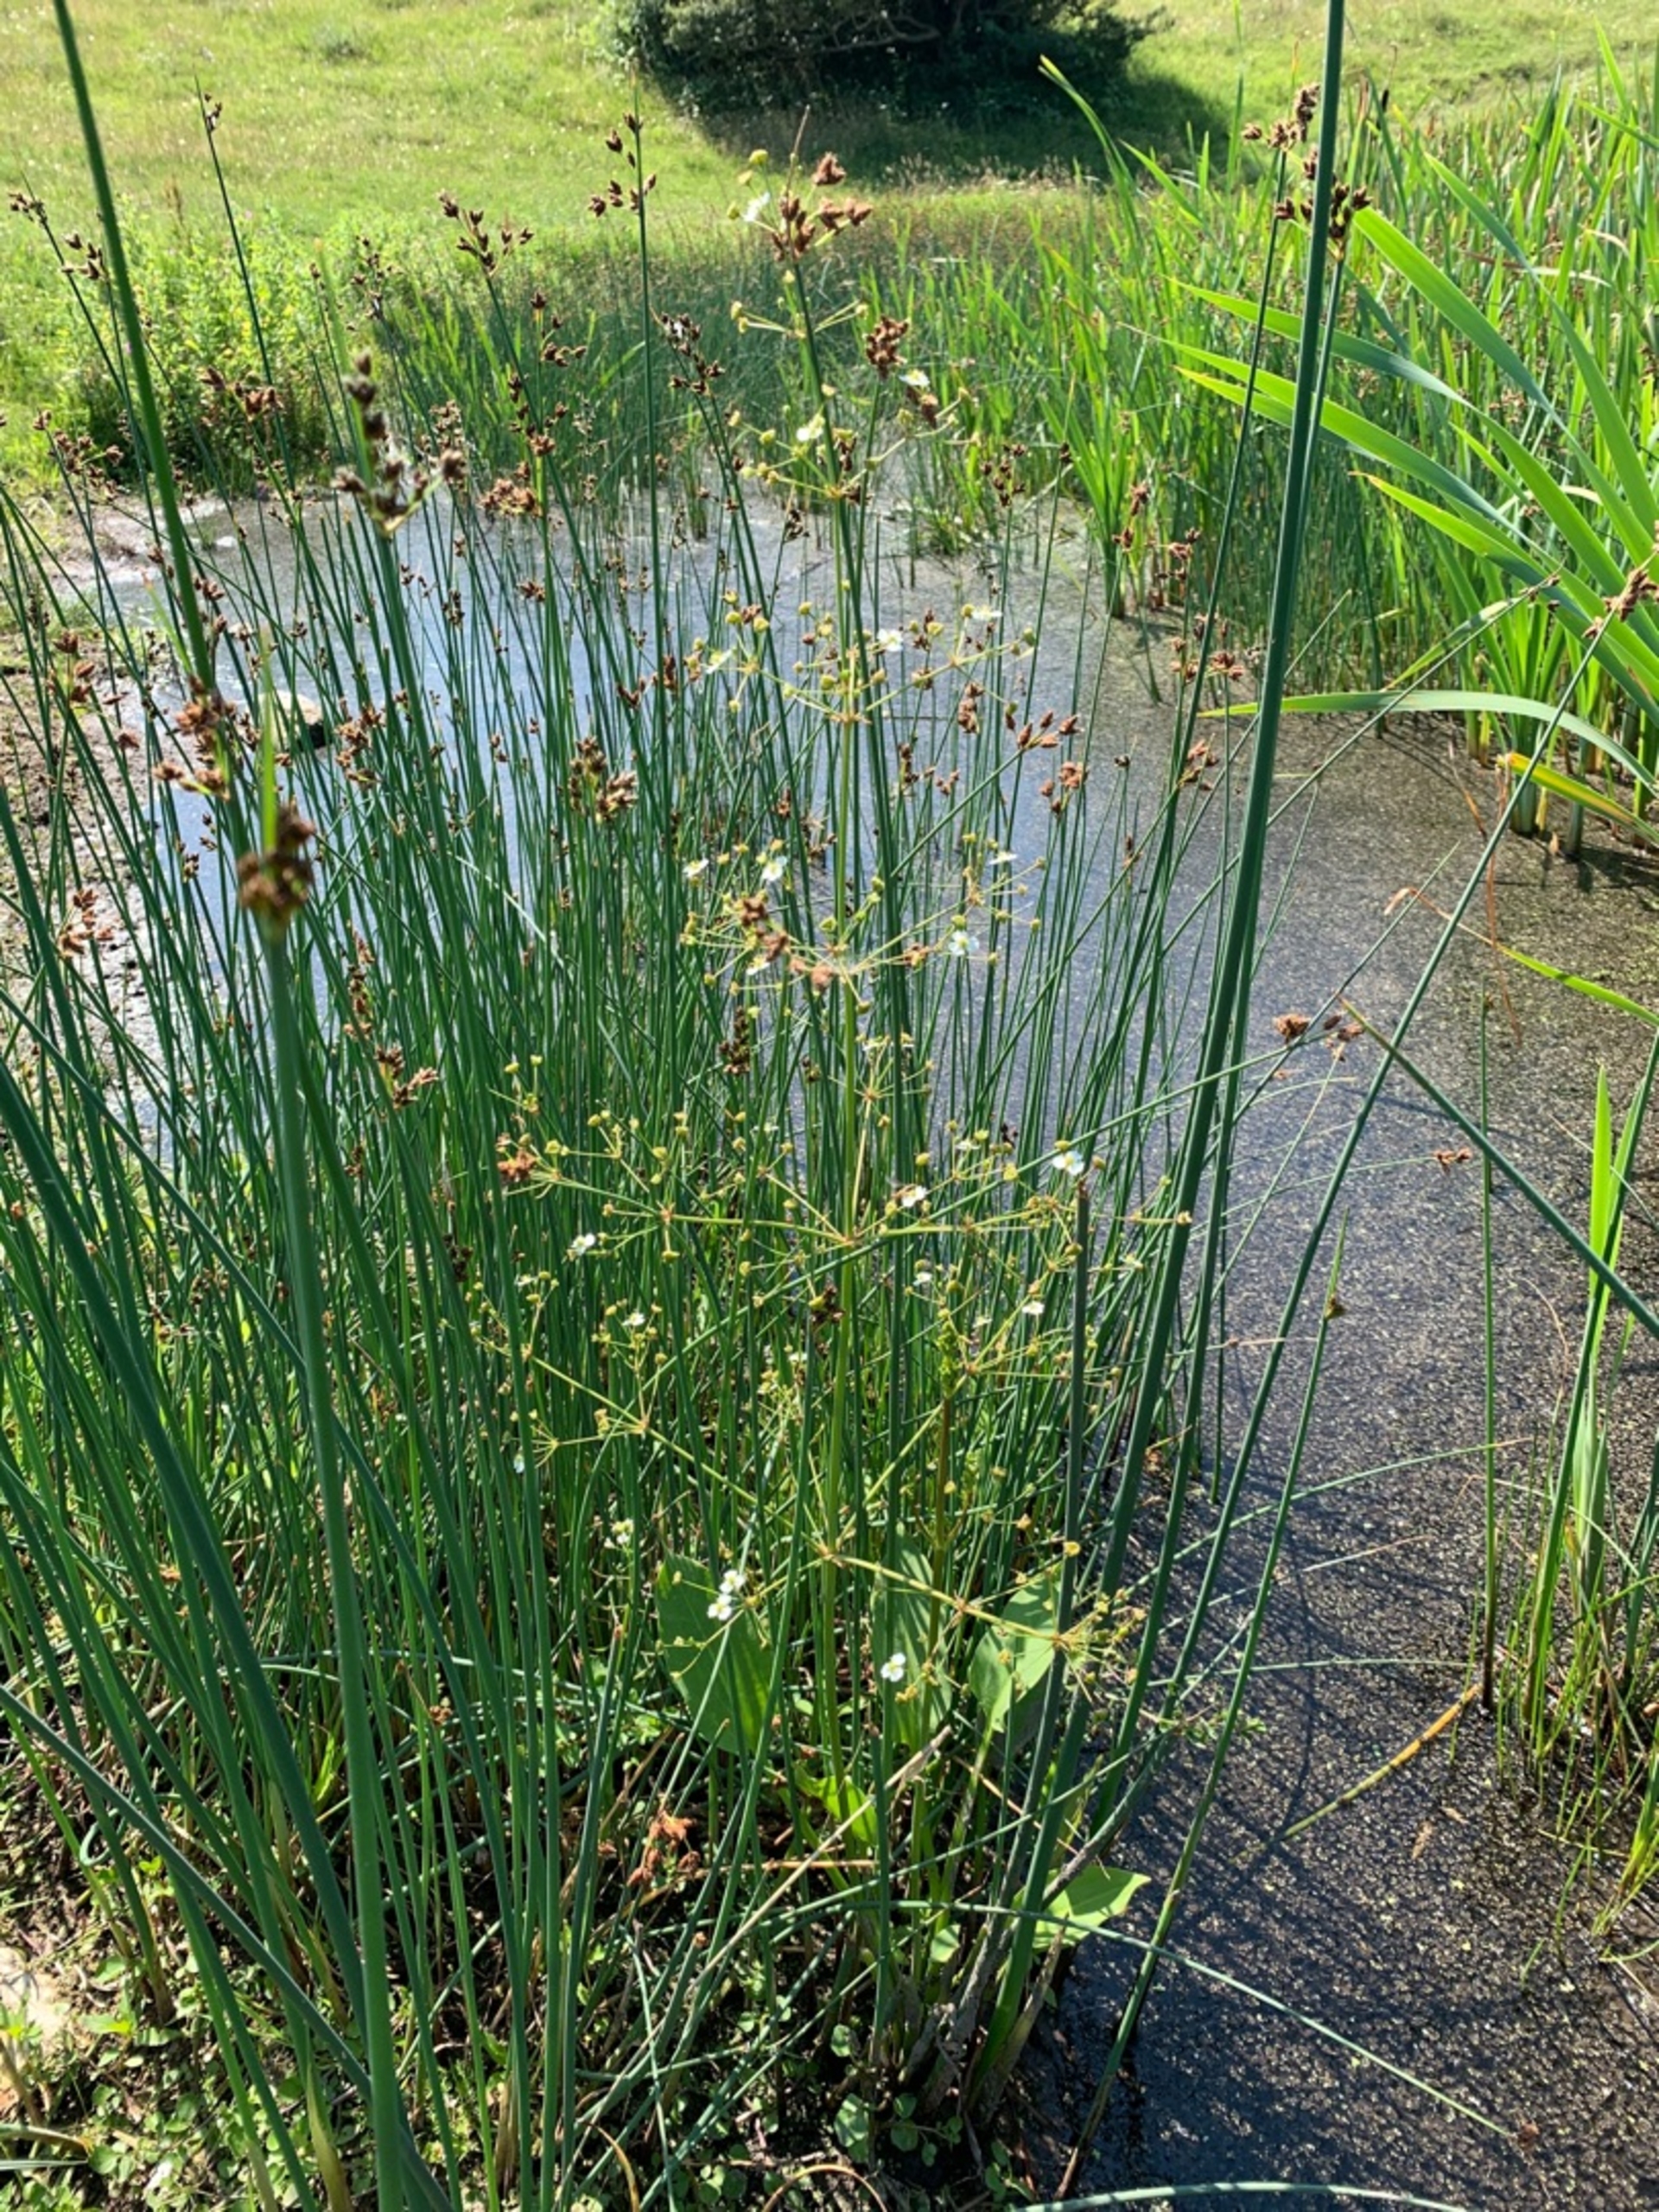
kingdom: Plantae
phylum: Tracheophyta
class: Liliopsida
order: Alismatales
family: Alismataceae
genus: Alisma
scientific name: Alisma plantago-aquatica
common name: Vejbred-skeblad
